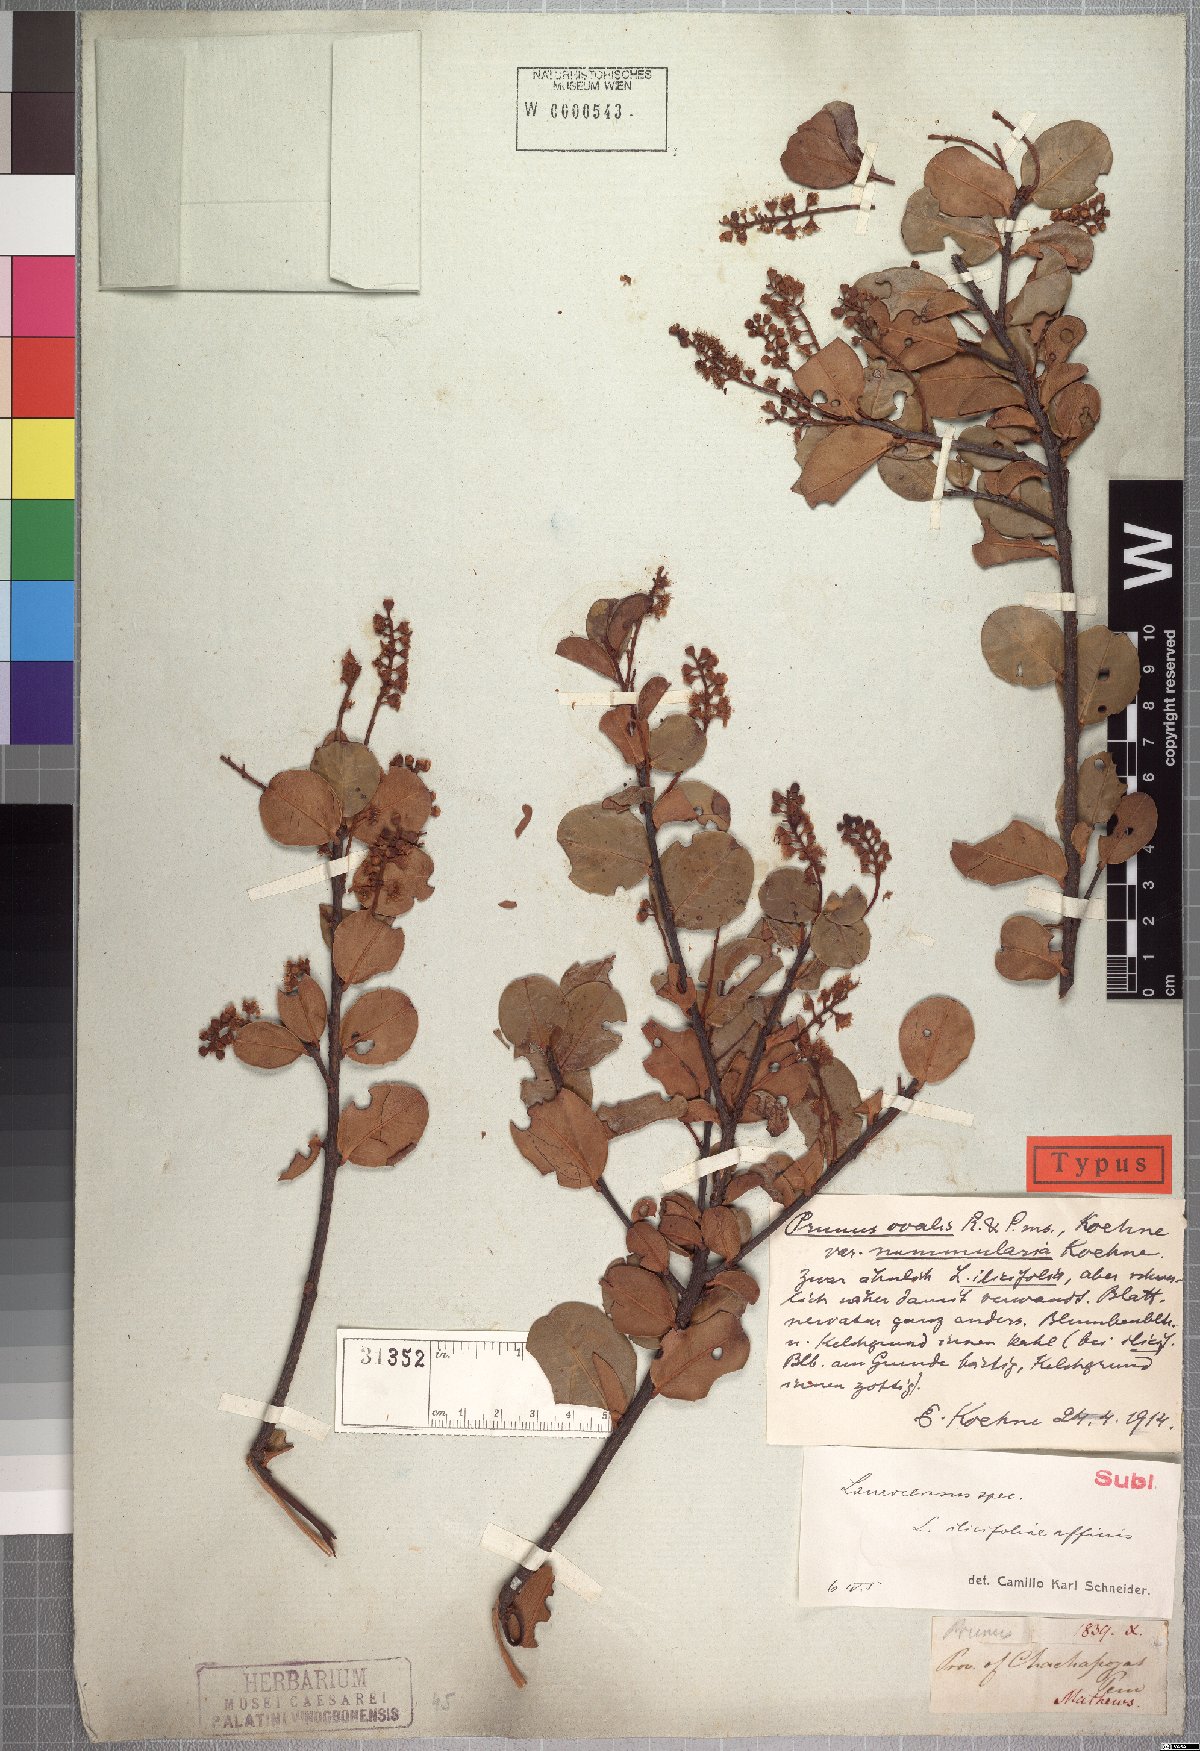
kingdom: Plantae
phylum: Tracheophyta
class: Magnoliopsida
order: Rosales
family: Rosaceae
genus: Prunus
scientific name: Prunus ovalis
